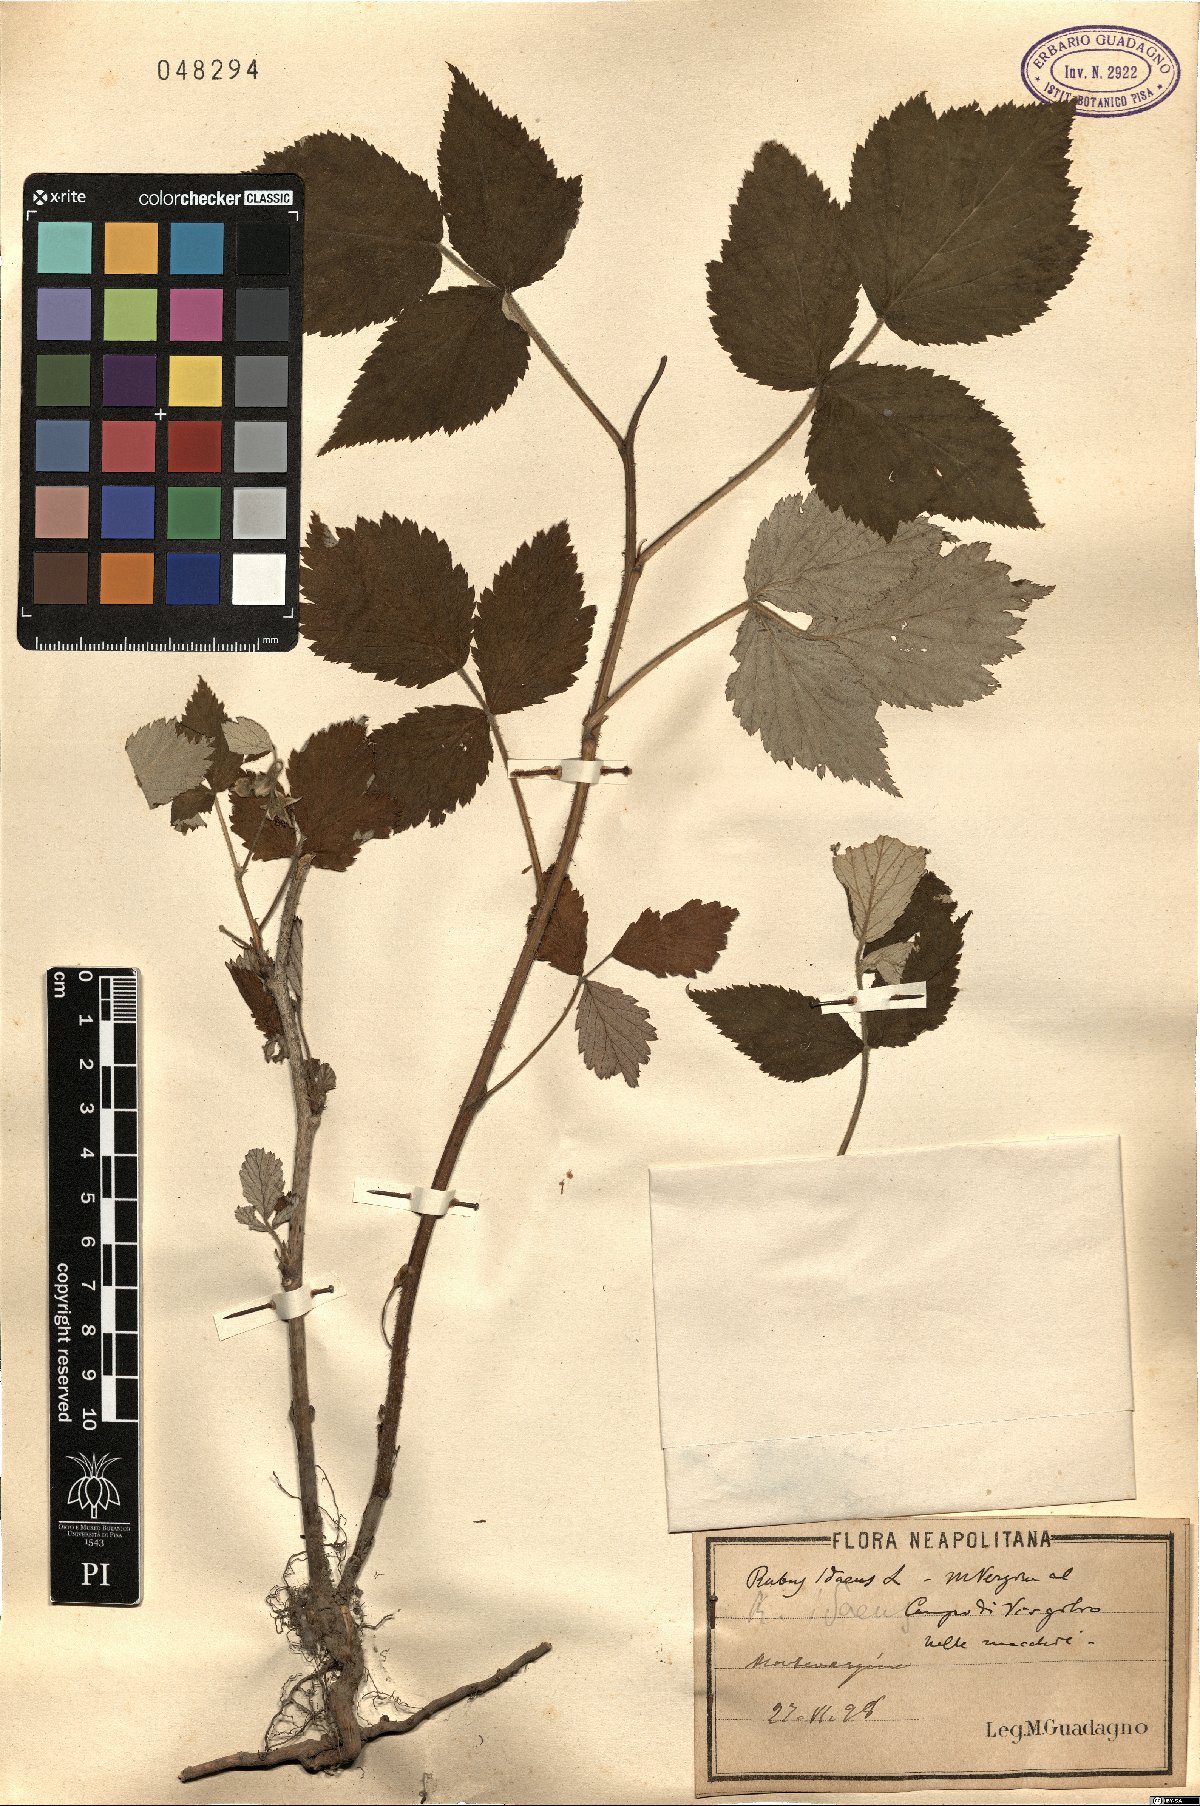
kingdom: Plantae
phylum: Tracheophyta
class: Magnoliopsida
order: Rosales
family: Rosaceae
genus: Rubus
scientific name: Rubus idaeus
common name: Raspberry
